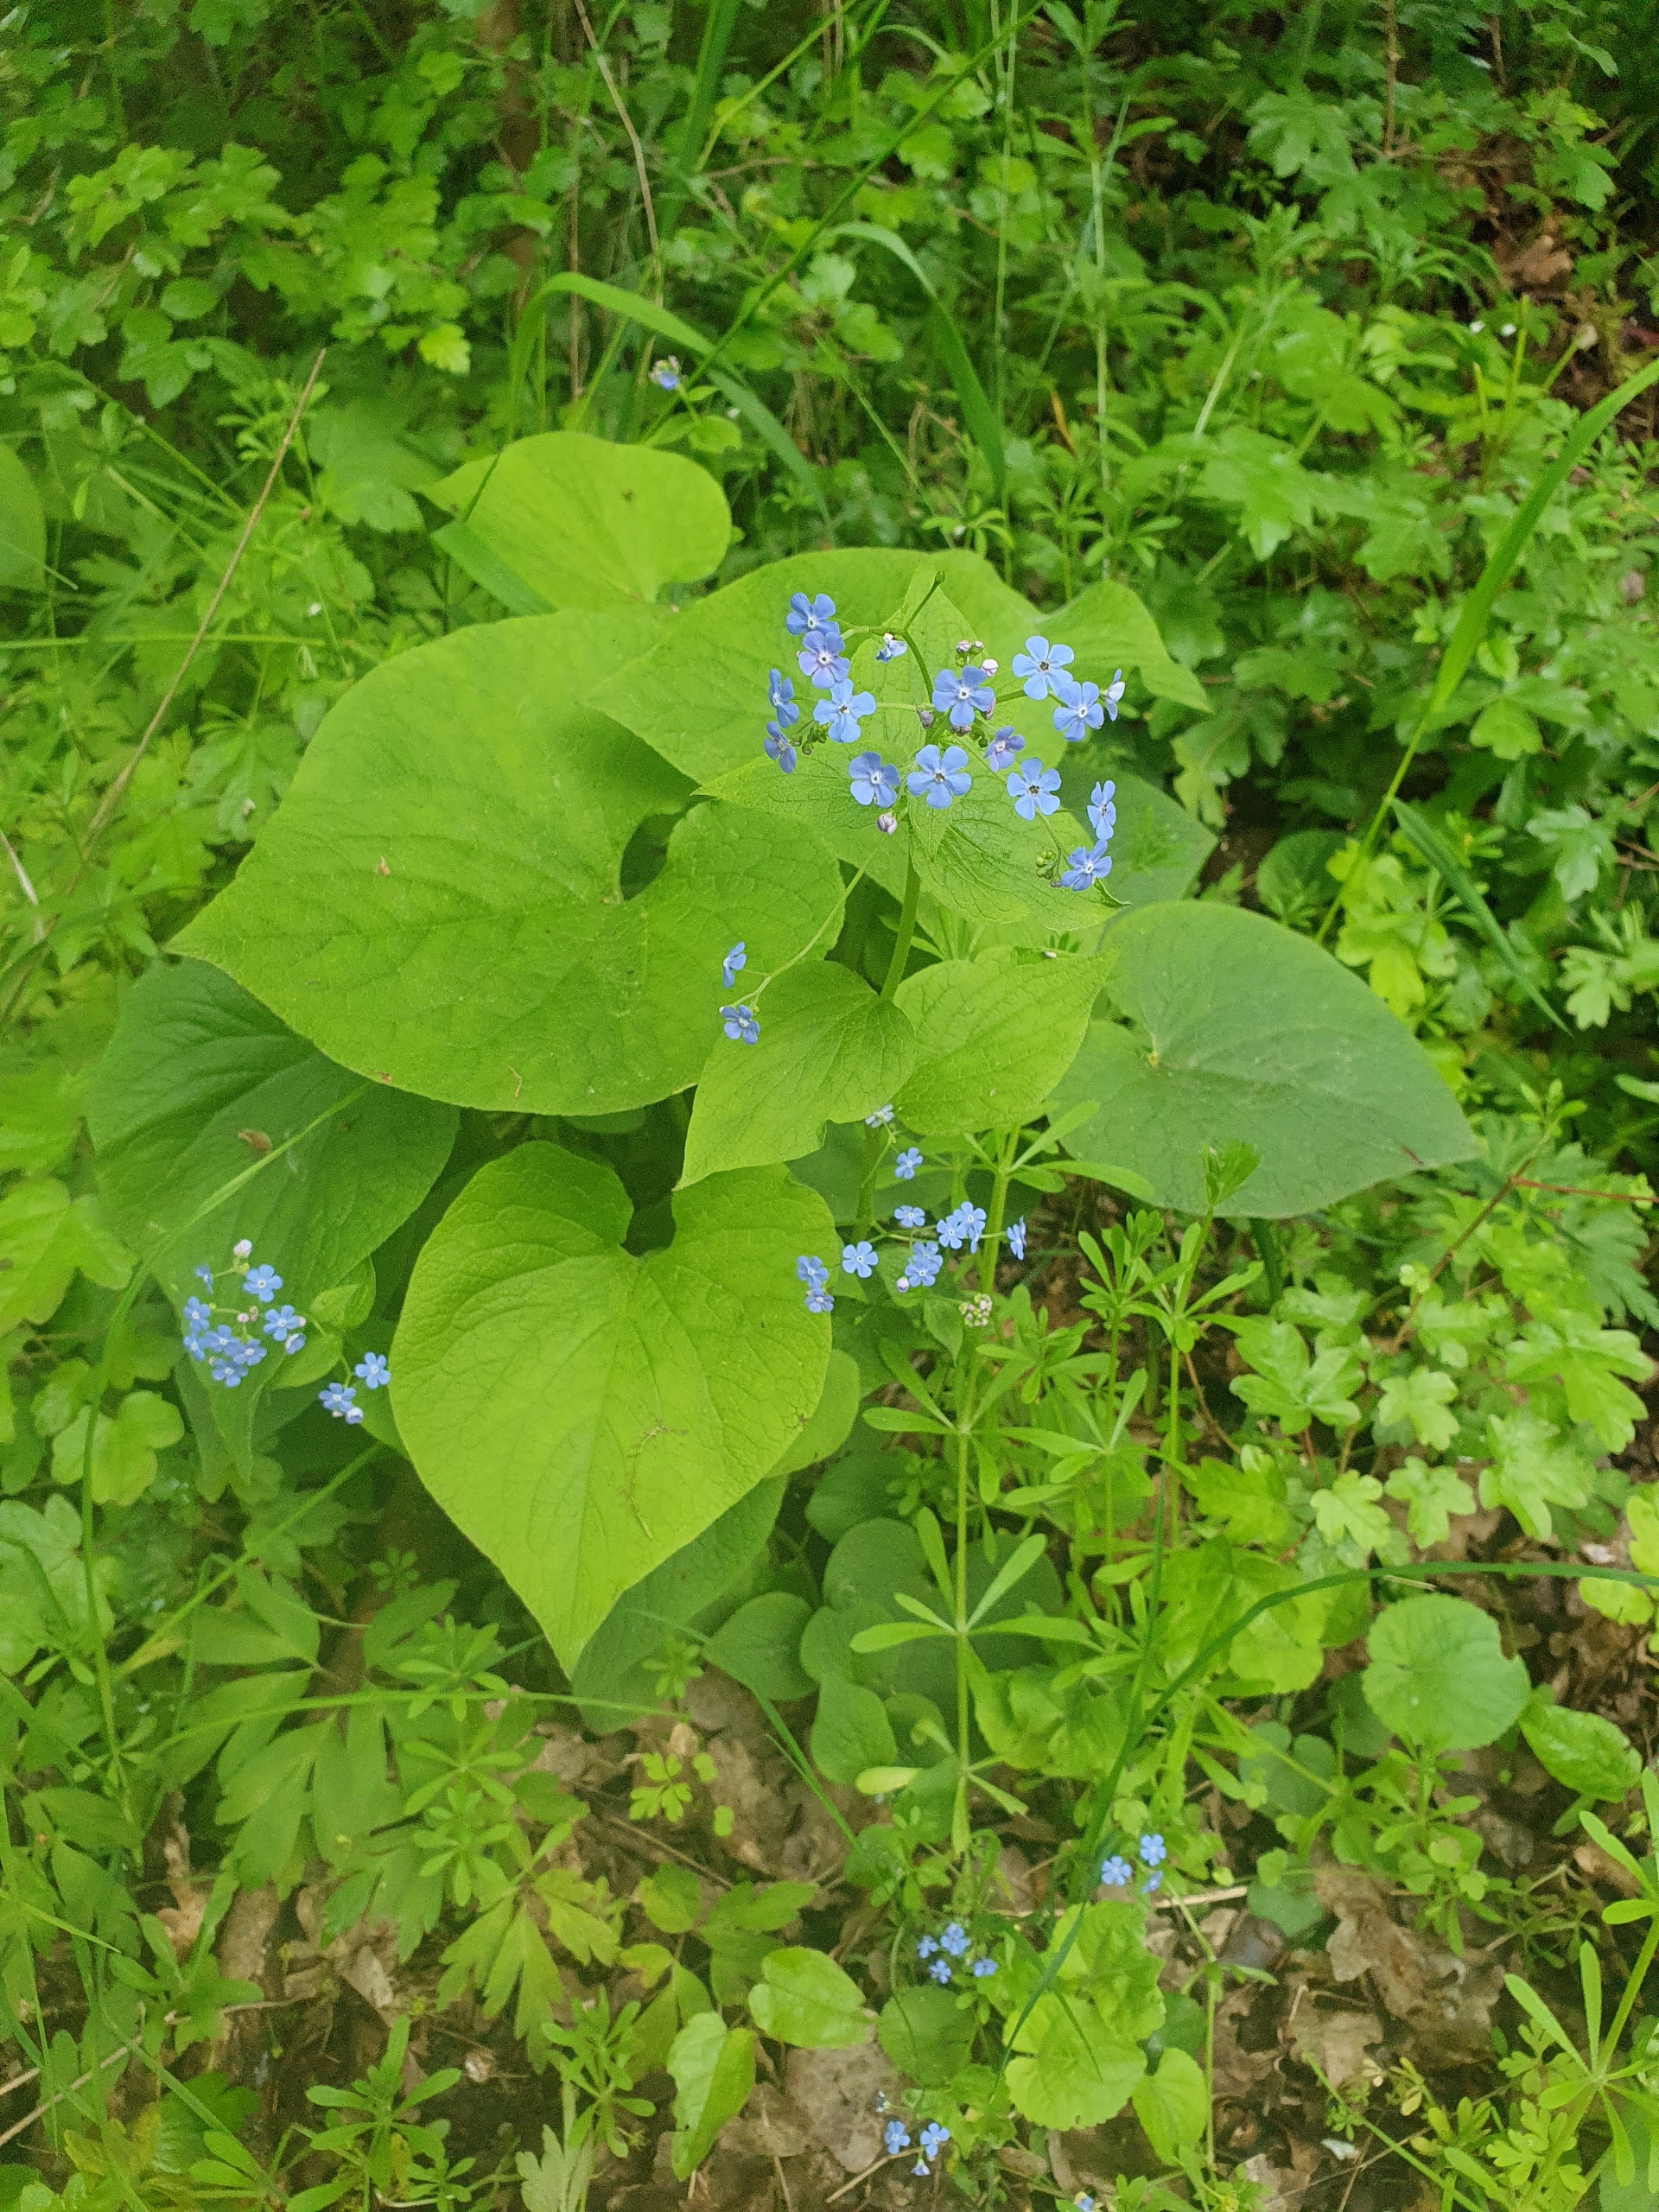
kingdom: Plantae
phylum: Tracheophyta
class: Magnoliopsida
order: Boraginales
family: Boraginaceae
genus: Brunnera
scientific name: Brunnera macrophylla
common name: Kærmindesøster
